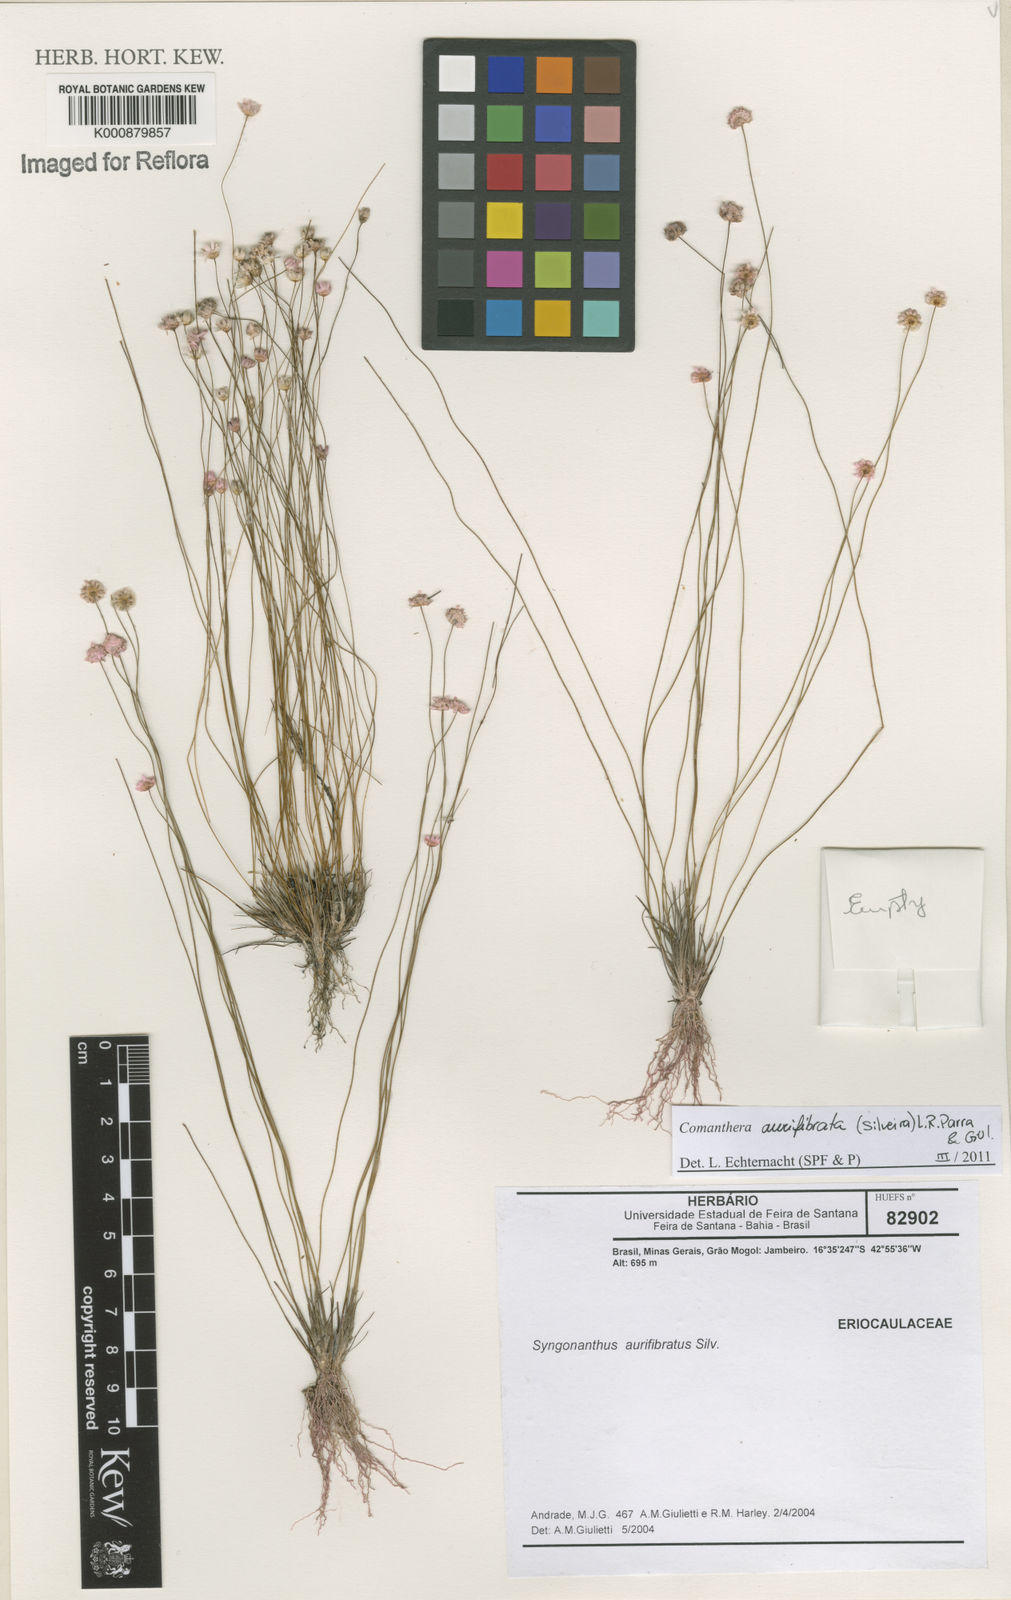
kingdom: Plantae
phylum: Tracheophyta
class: Liliopsida
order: Poales
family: Eriocaulaceae
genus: Comanthera
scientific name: Comanthera aurifibrata
